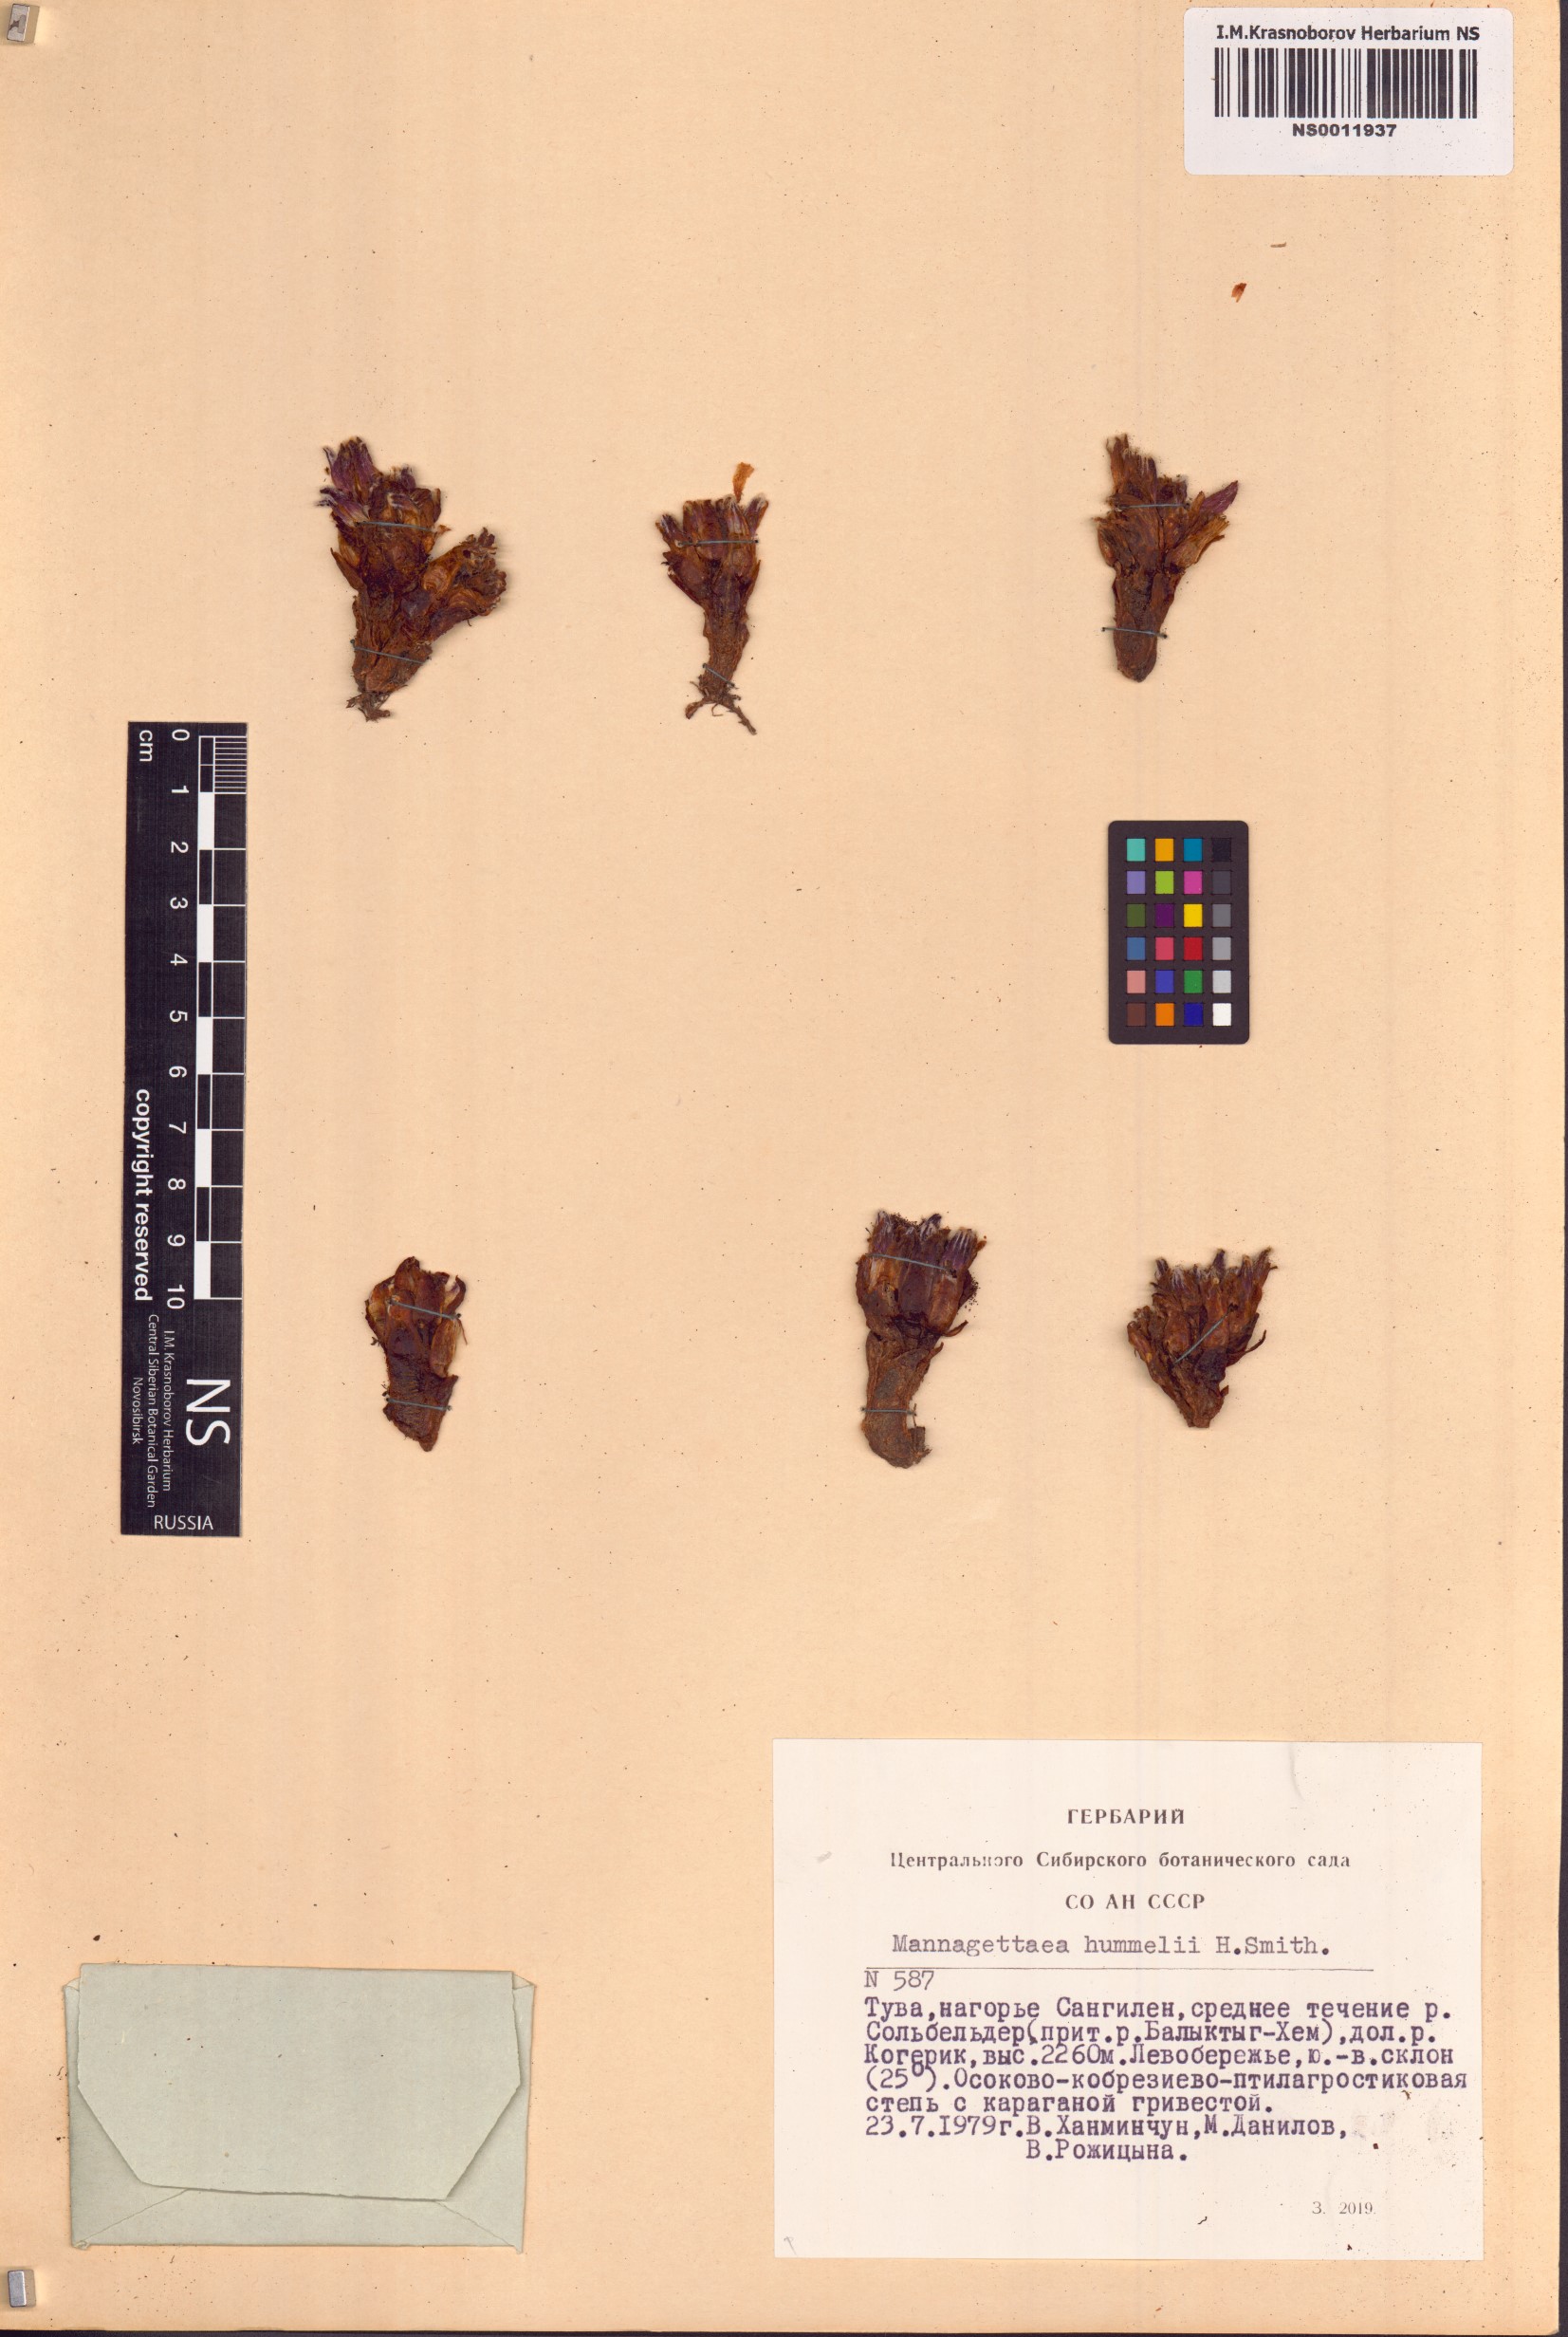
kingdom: Plantae
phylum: Tracheophyta
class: Magnoliopsida
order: Lamiales
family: Orobanchaceae
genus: Mannagettaea
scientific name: Mannagettaea hummelii
